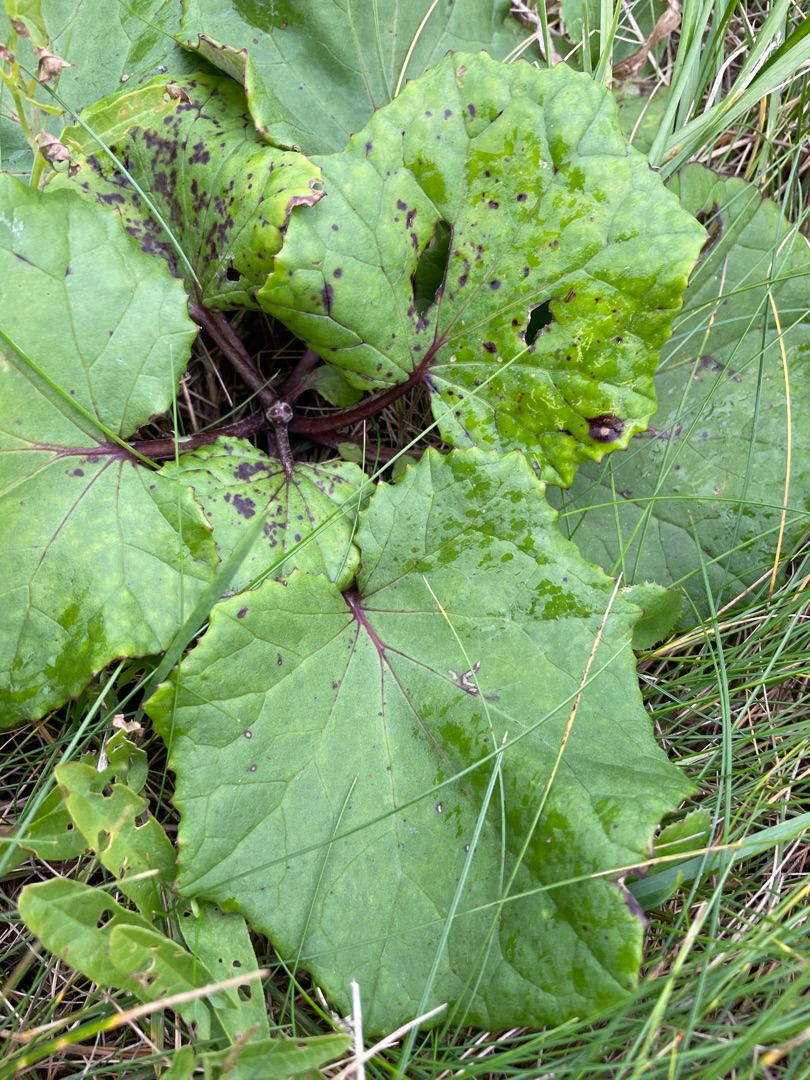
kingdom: Plantae
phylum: Tracheophyta
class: Magnoliopsida
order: Asterales
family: Asteraceae
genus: Tussilago
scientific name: Tussilago farfara
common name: Følfod
